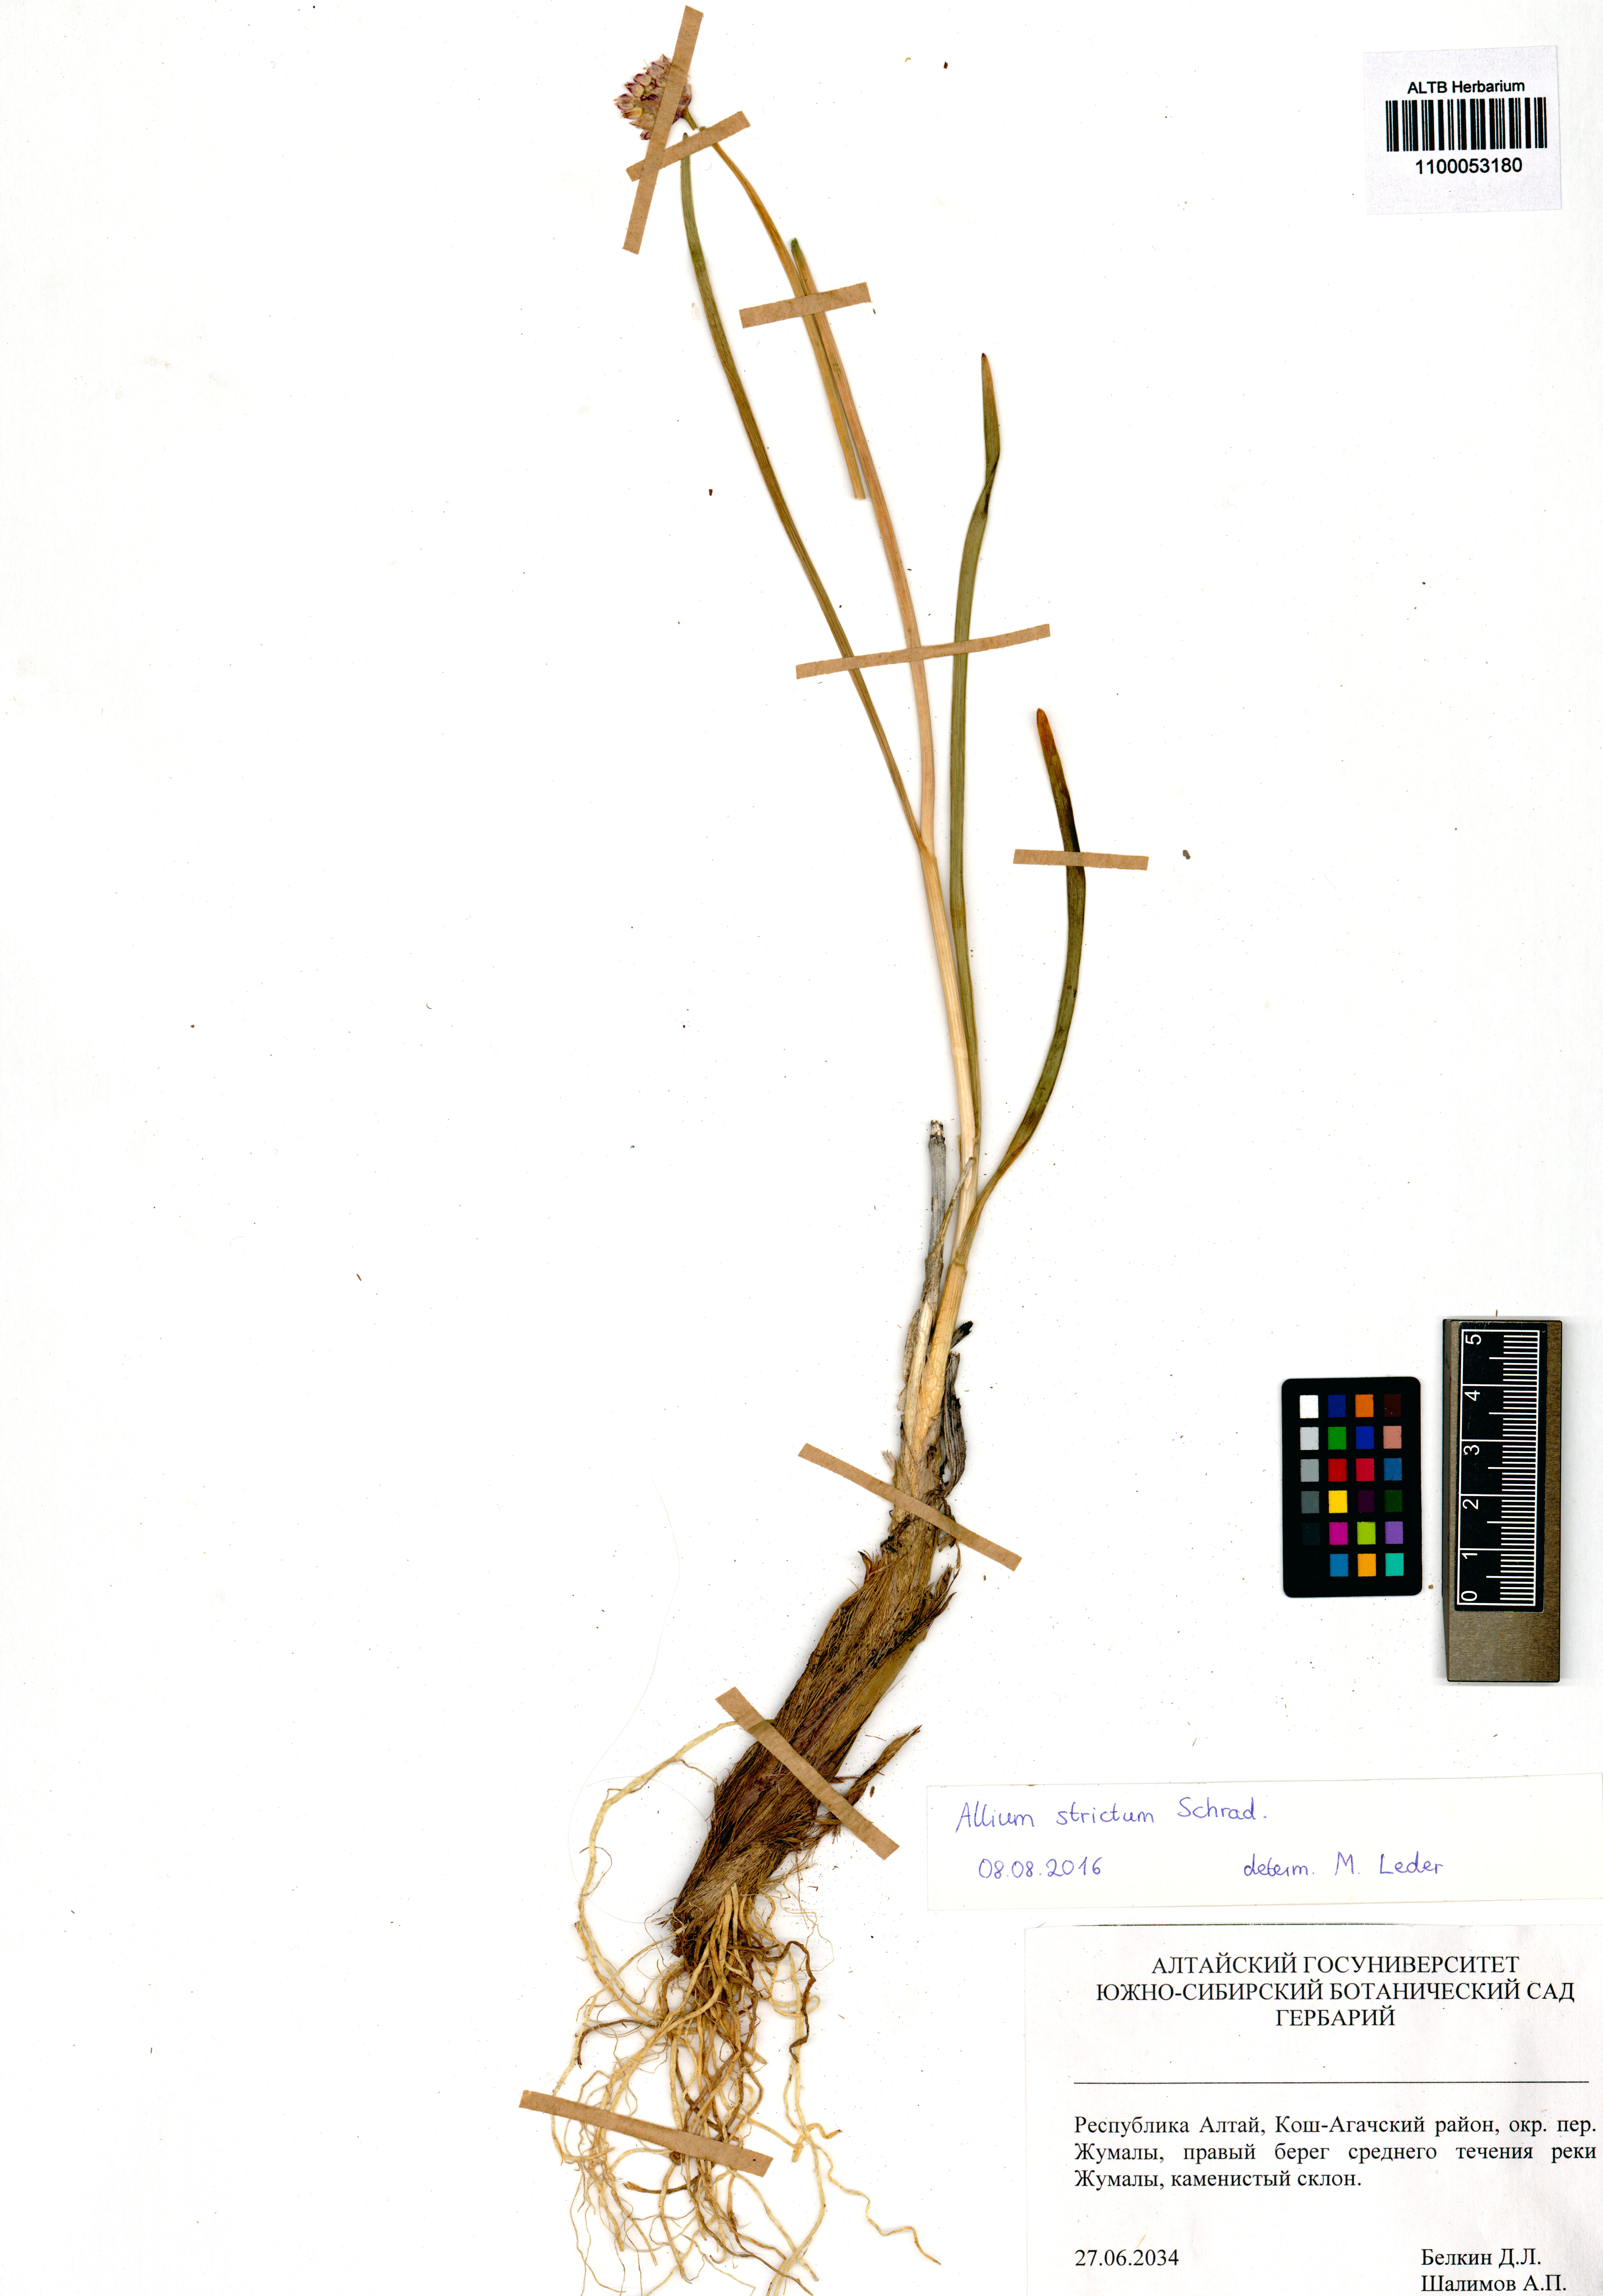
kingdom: Plantae
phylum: Tracheophyta
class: Liliopsida
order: Asparagales
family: Amaryllidaceae
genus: Allium
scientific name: Allium strictum
